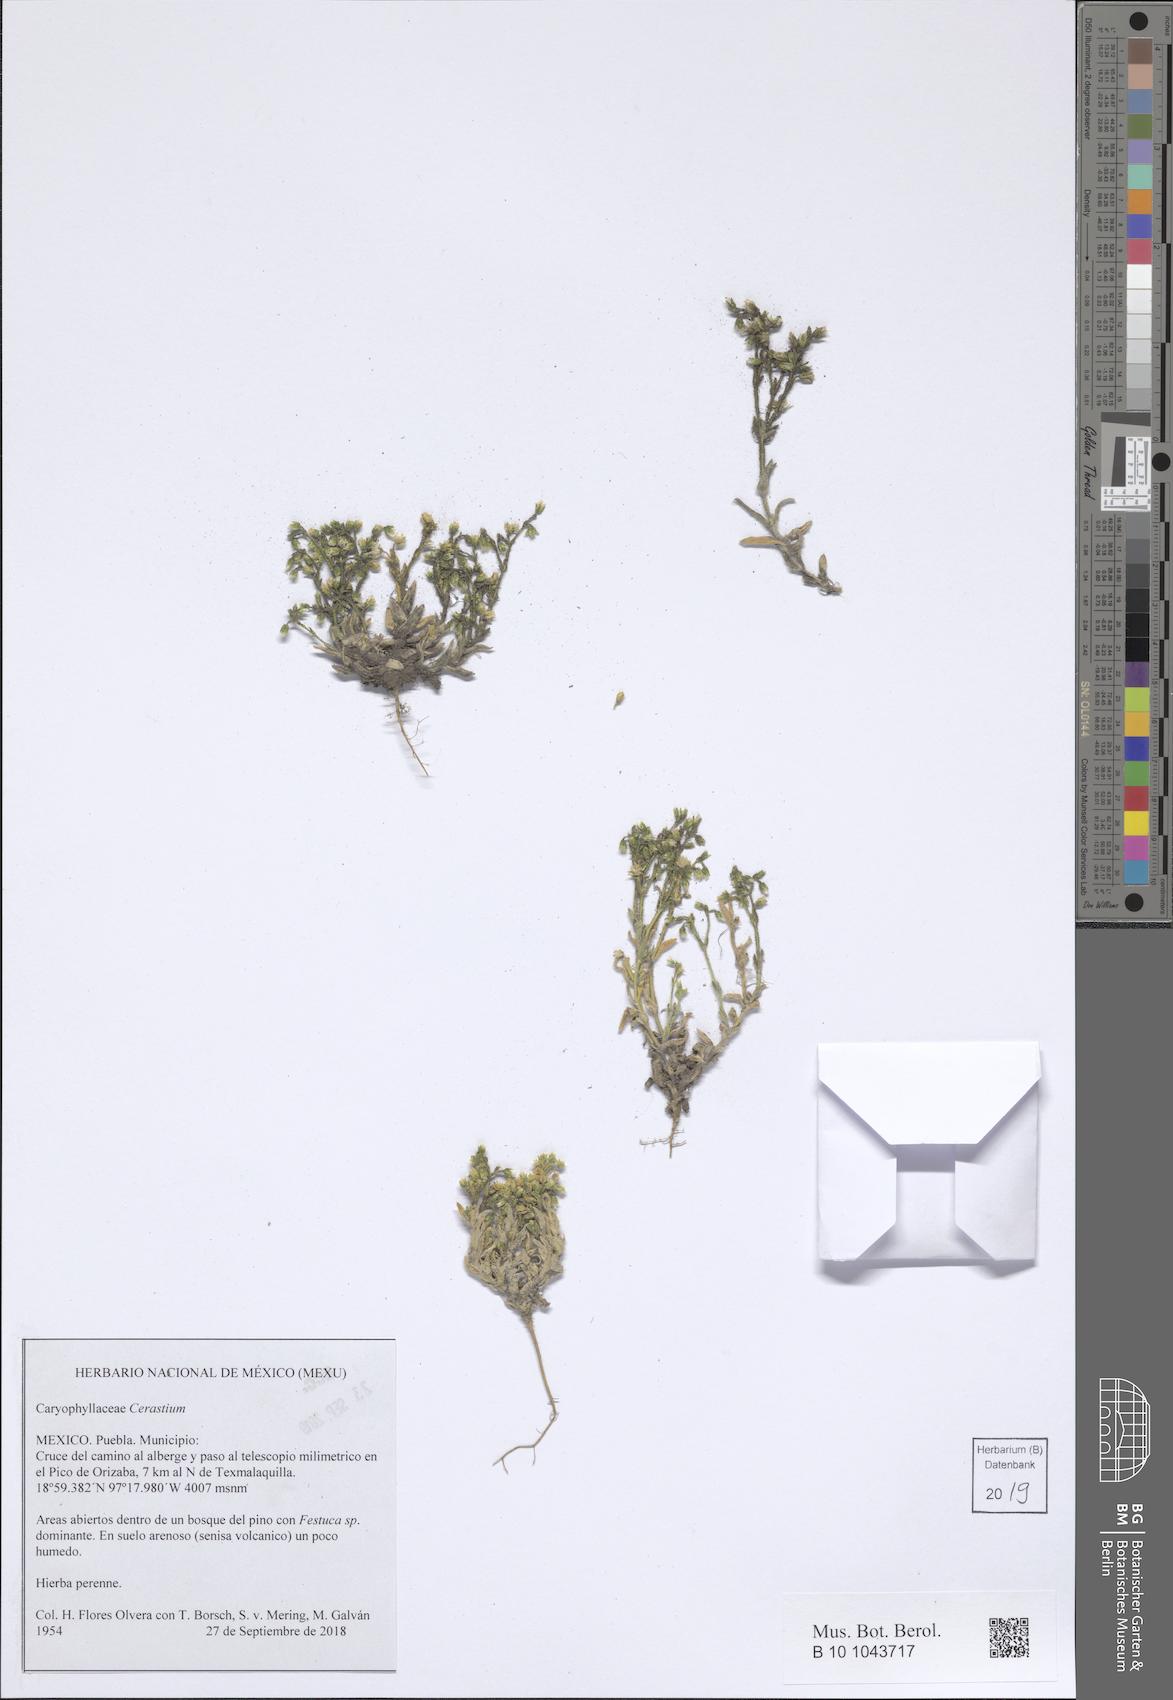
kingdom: Plantae
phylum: Tracheophyta
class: Magnoliopsida
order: Caryophyllales
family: Caryophyllaceae
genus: Cerastium
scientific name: Cerastium
